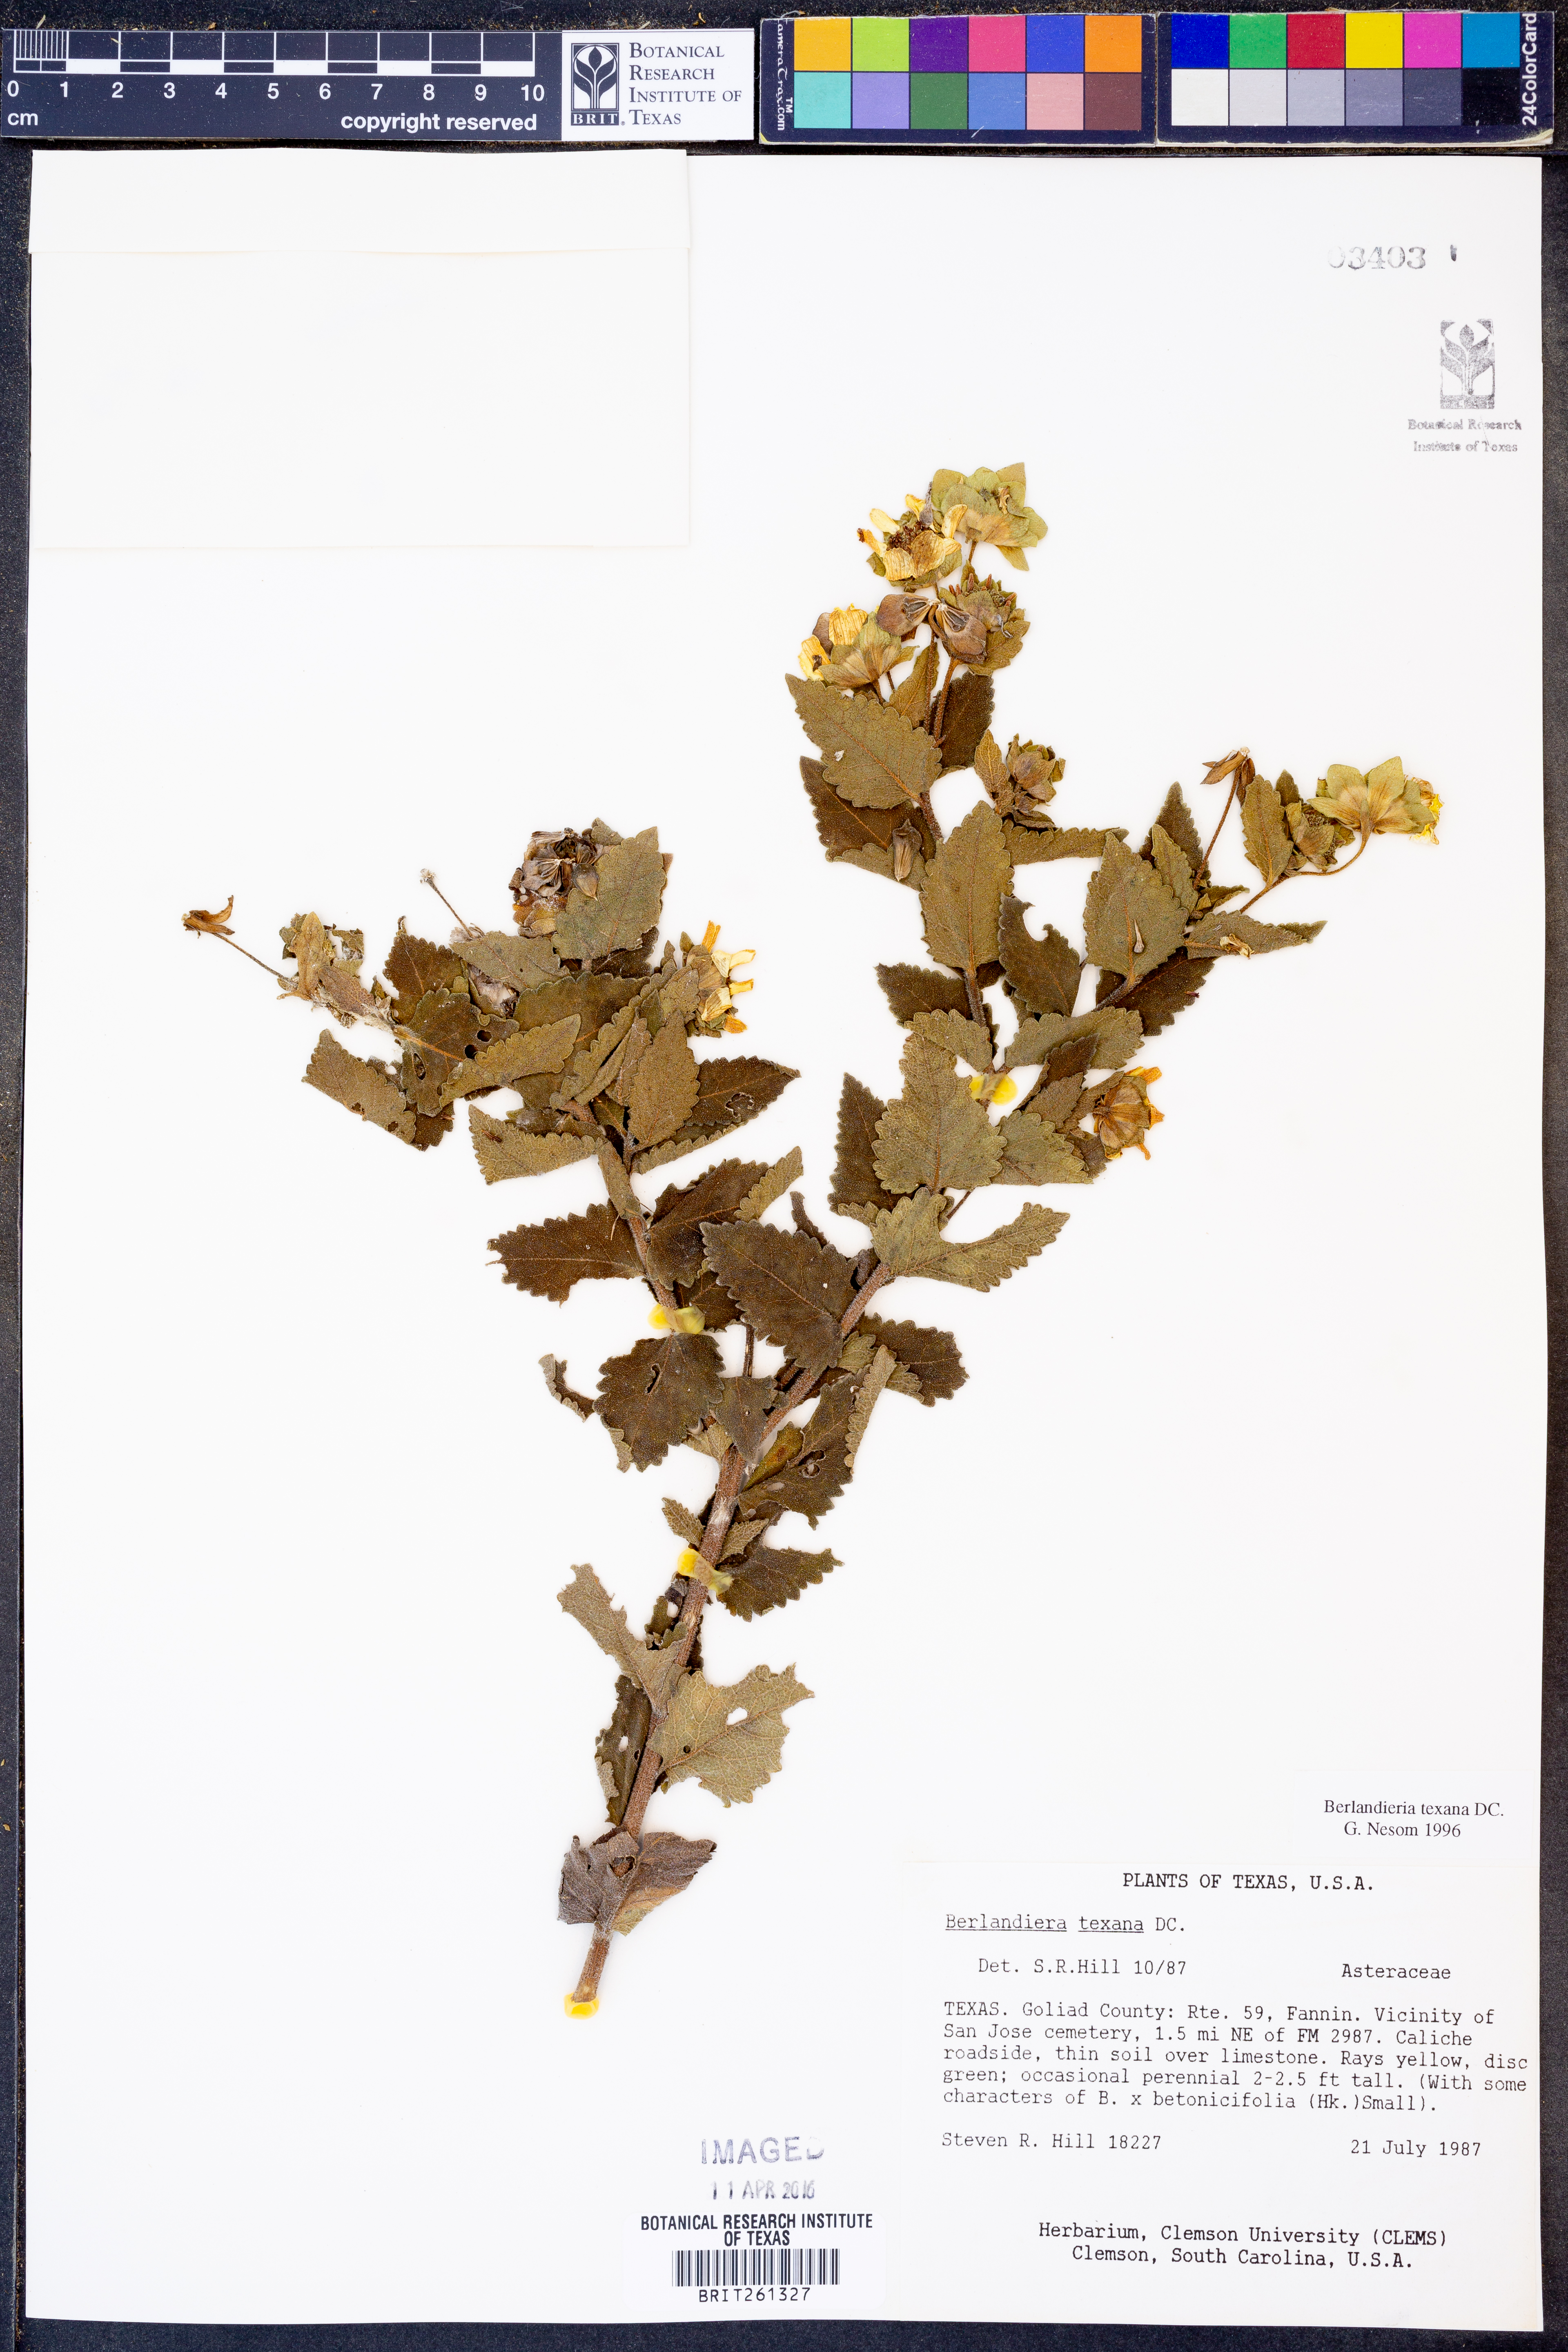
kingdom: Plantae
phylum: Tracheophyta
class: Magnoliopsida
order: Asterales
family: Asteraceae
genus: Berlandiera
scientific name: Berlandiera texana
